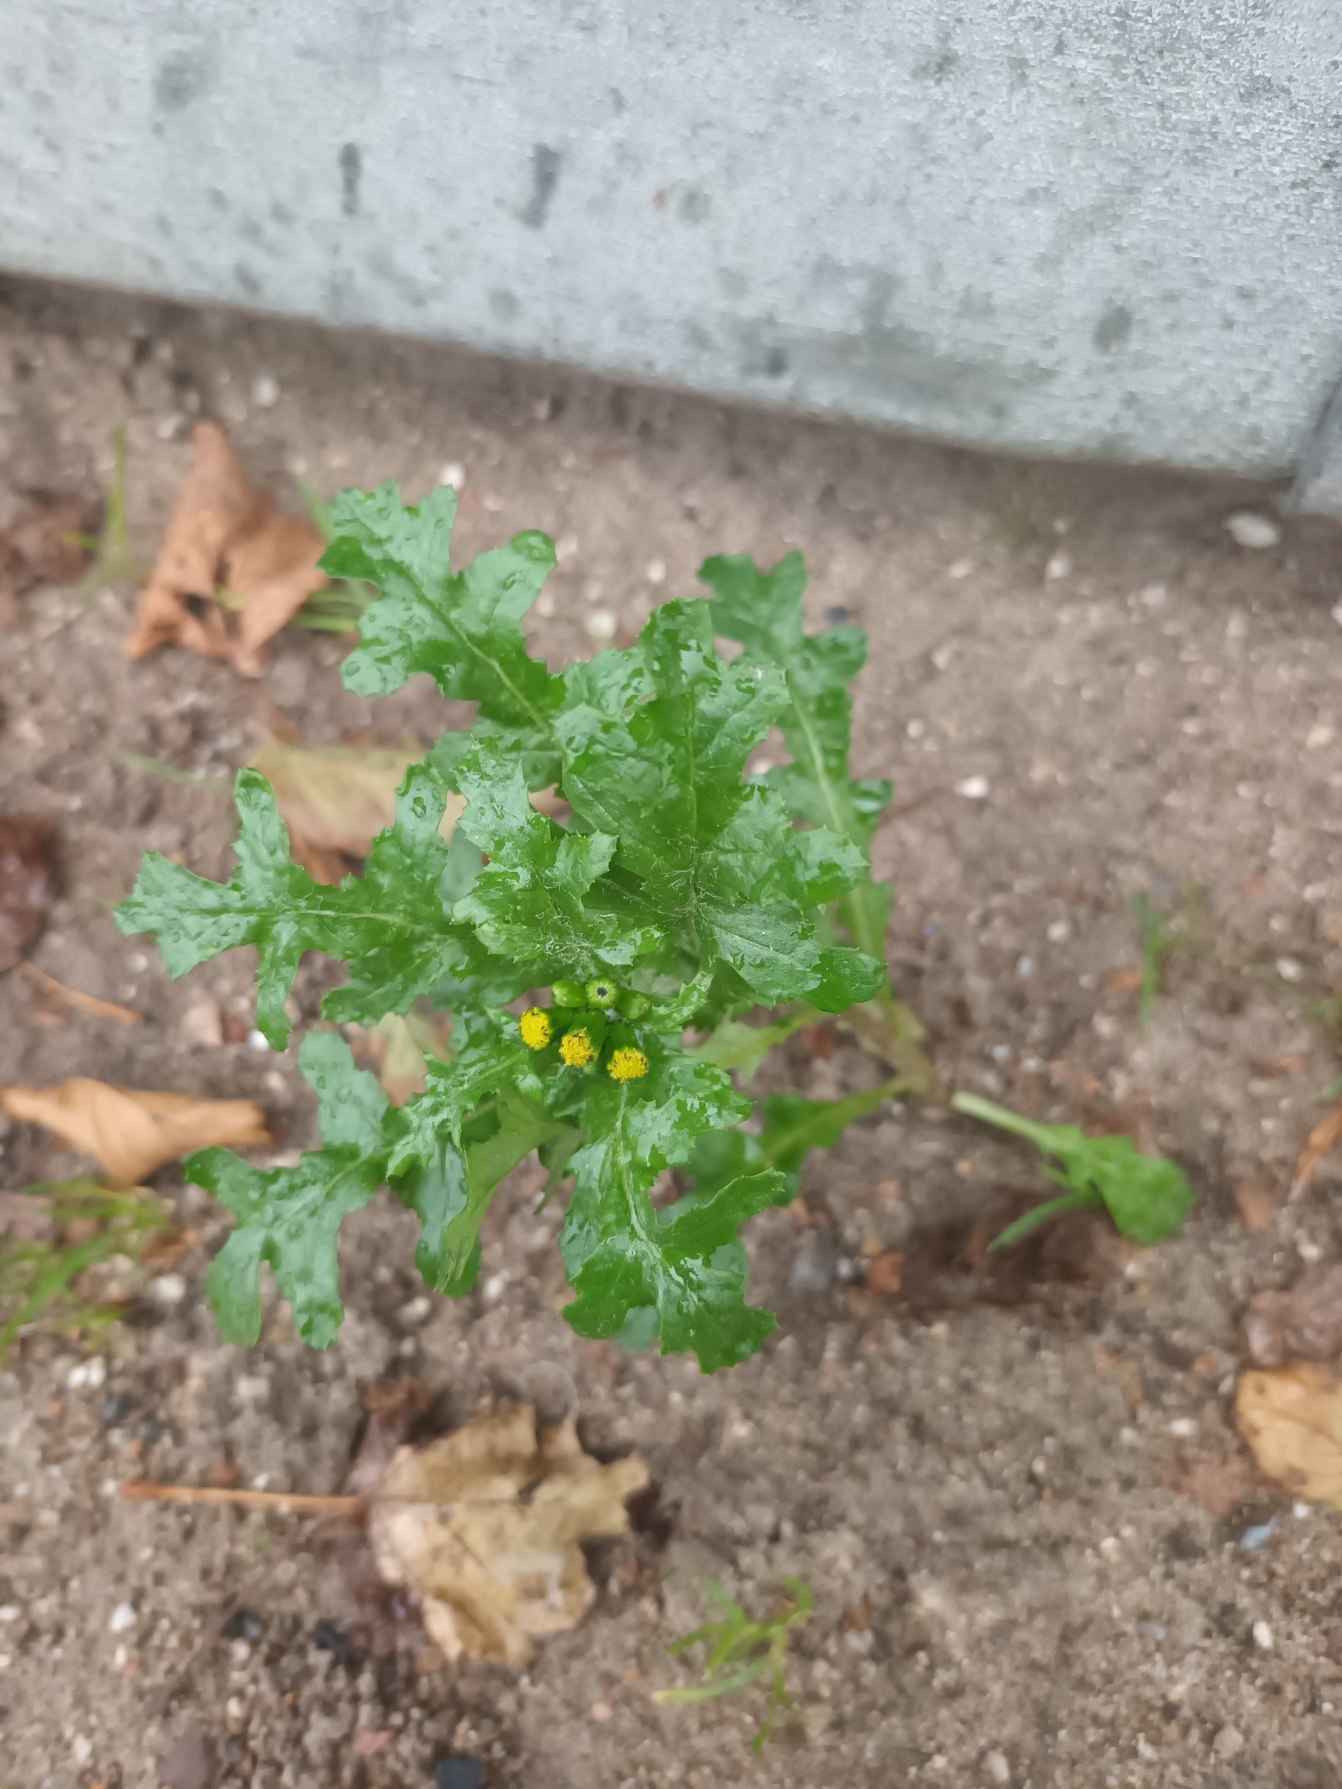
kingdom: Plantae
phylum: Tracheophyta
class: Magnoliopsida
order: Asterales
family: Asteraceae
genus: Senecio
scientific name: Senecio vulgaris
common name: Almindelig brandbæger
